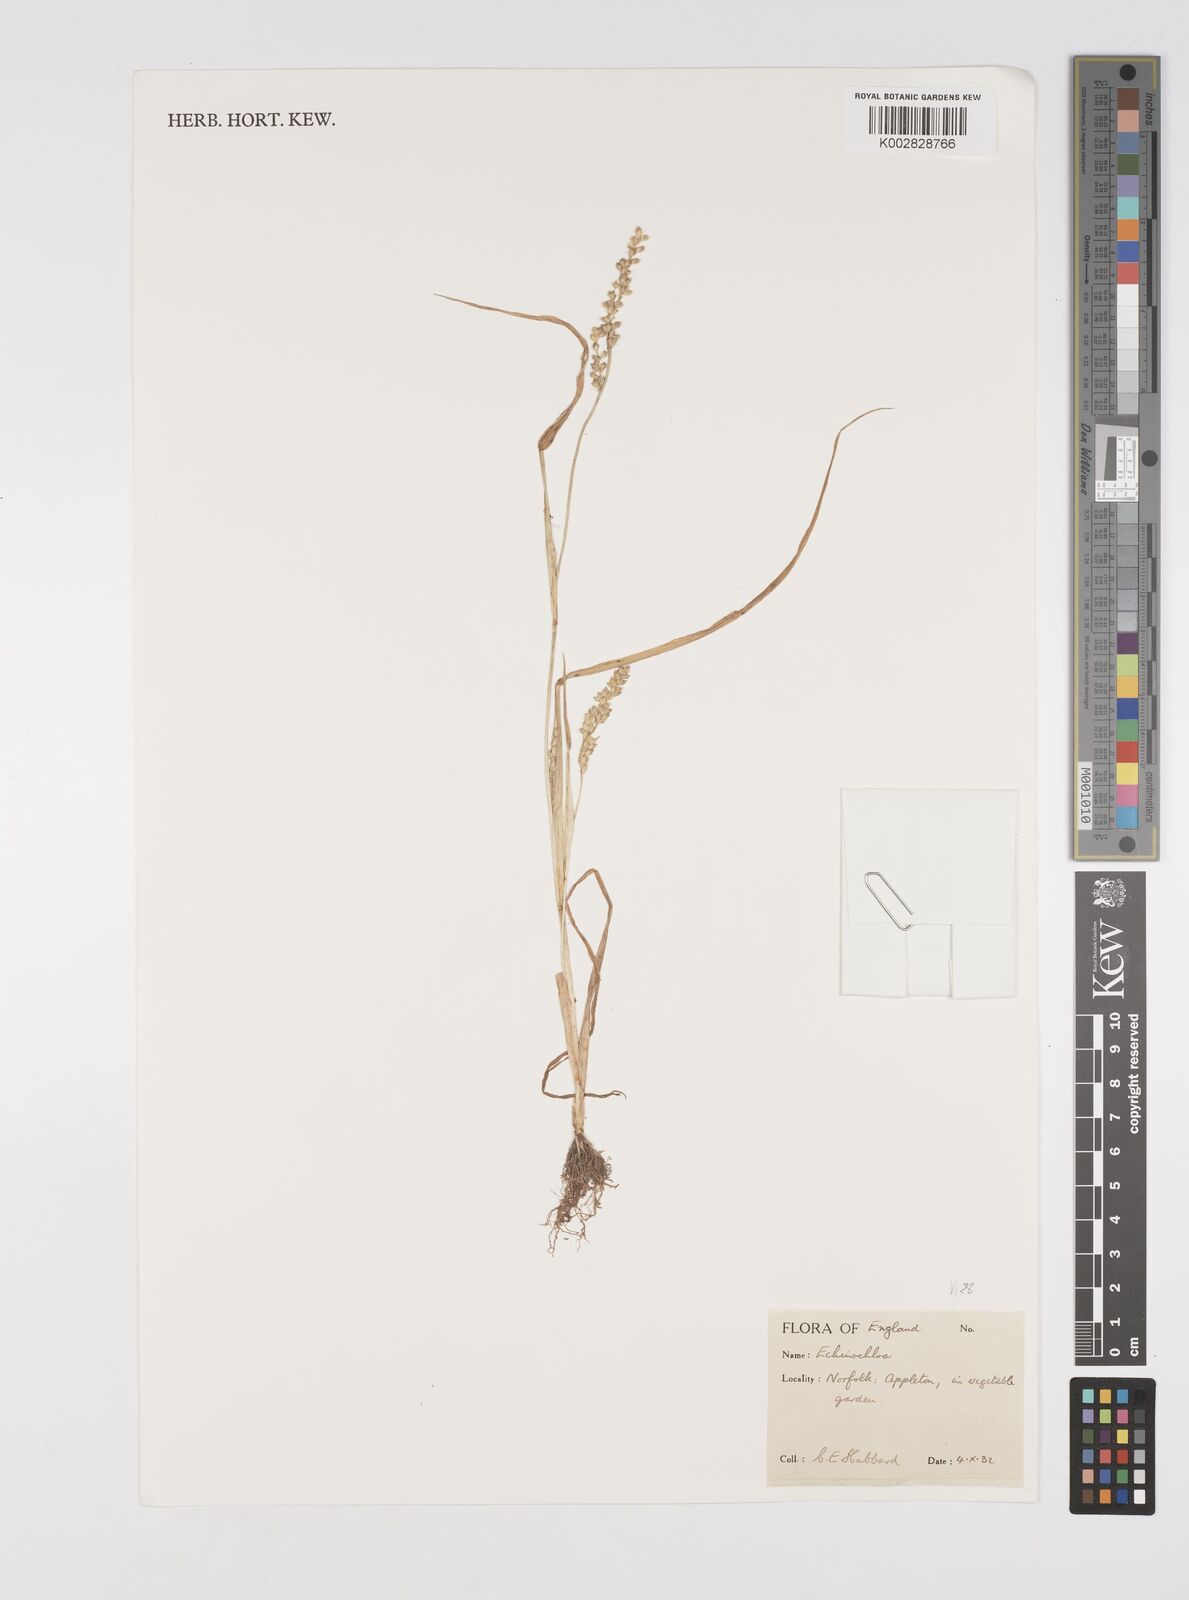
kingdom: Plantae
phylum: Tracheophyta
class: Liliopsida
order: Poales
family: Poaceae
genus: Echinochloa
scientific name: Echinochloa crus-galli
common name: Cockspur
